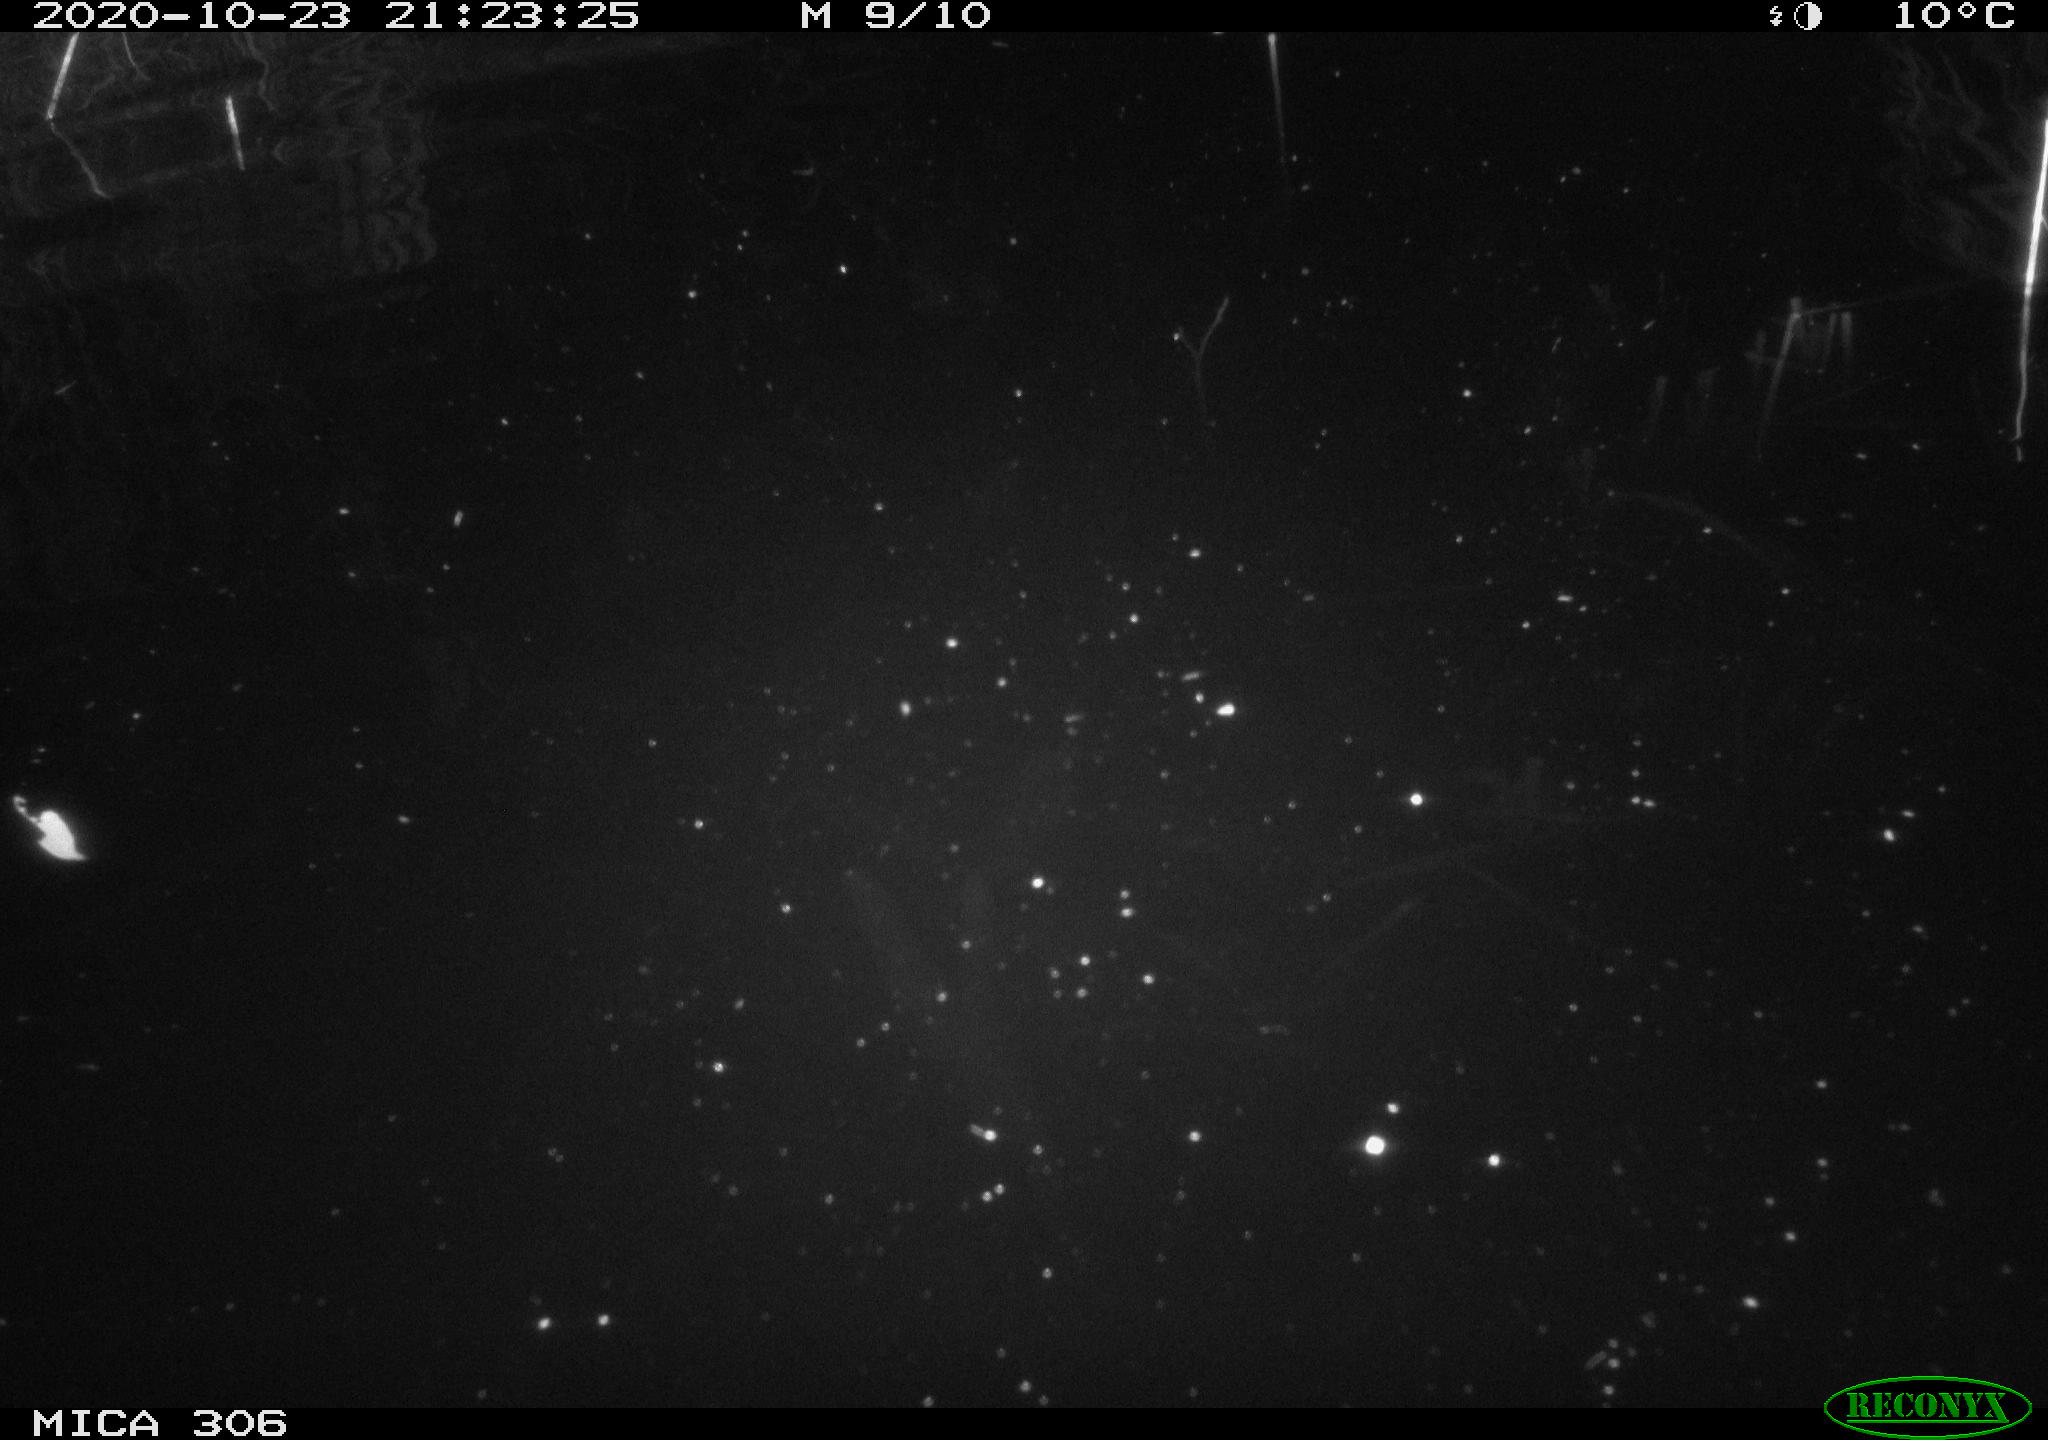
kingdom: Animalia
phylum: Chordata
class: Mammalia
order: Rodentia
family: Cricetidae
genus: Ondatra
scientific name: Ondatra zibethicus
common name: Muskrat
